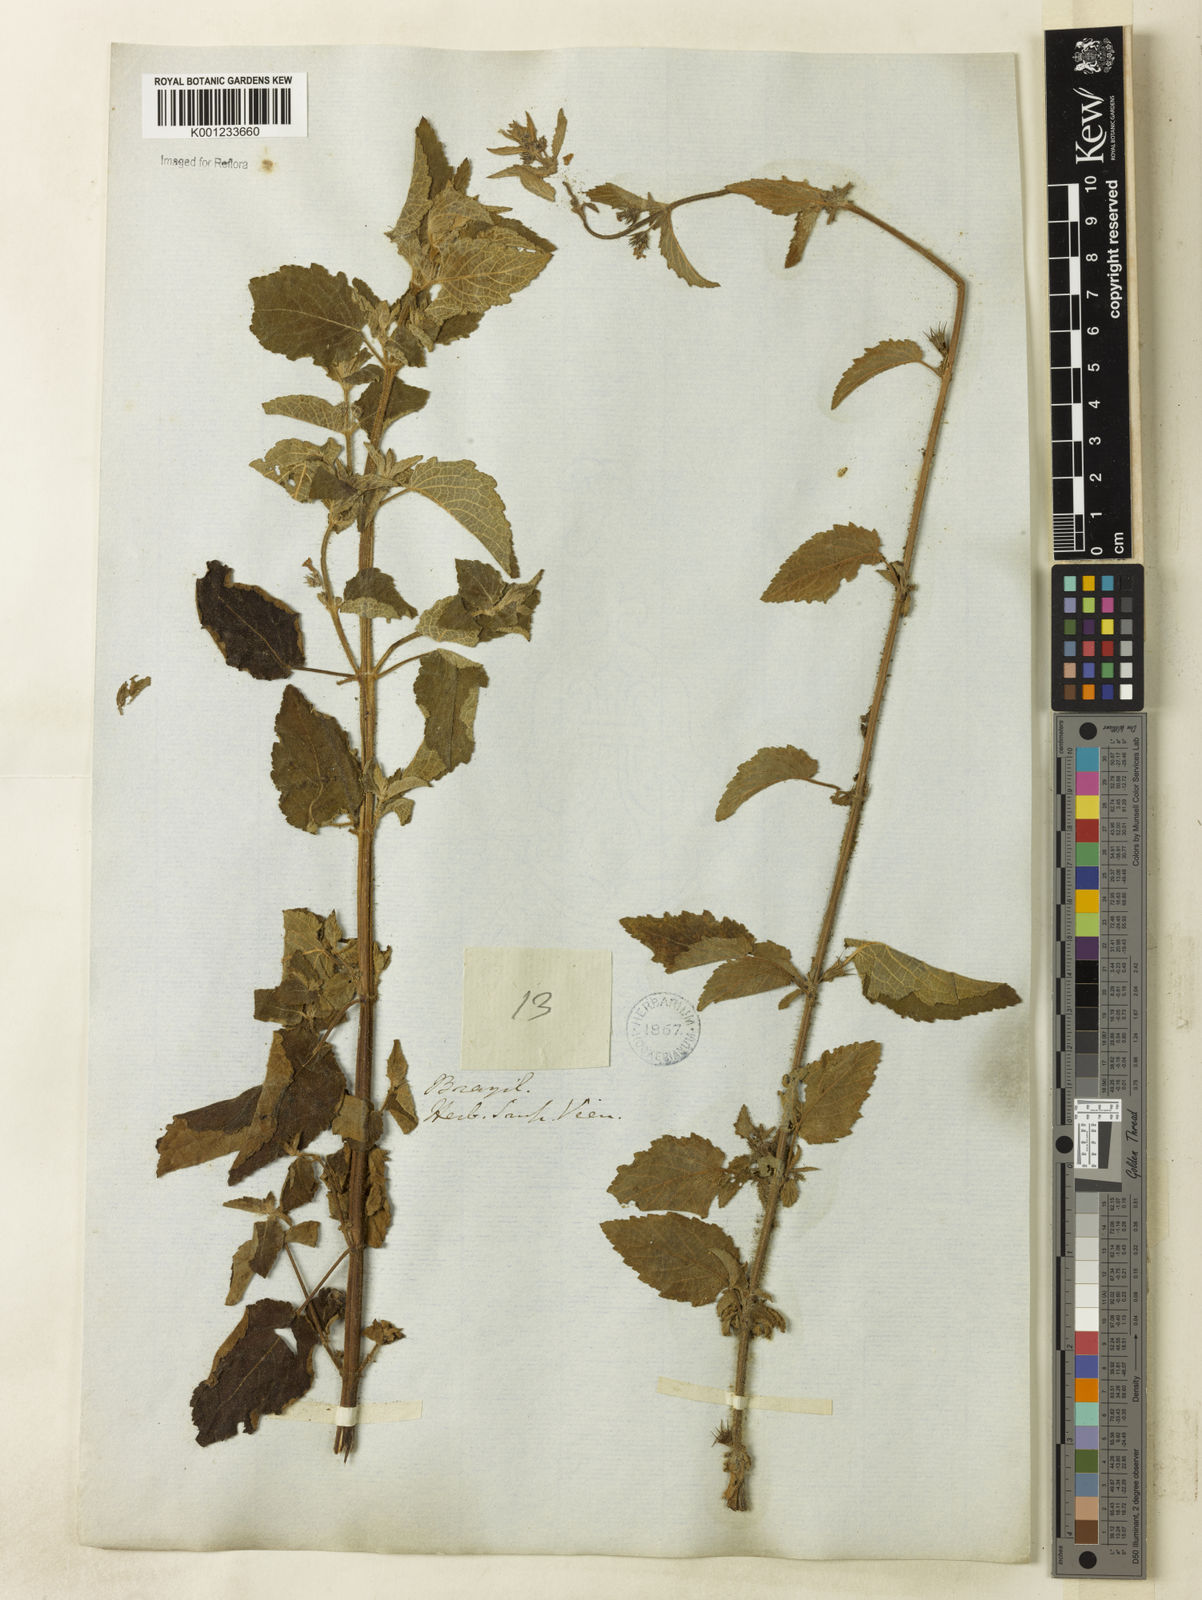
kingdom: Plantae
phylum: Tracheophyta
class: Magnoliopsida
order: Lamiales
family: Lamiaceae
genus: Mesosphaerum
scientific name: Mesosphaerum suaveolens
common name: Pignut
